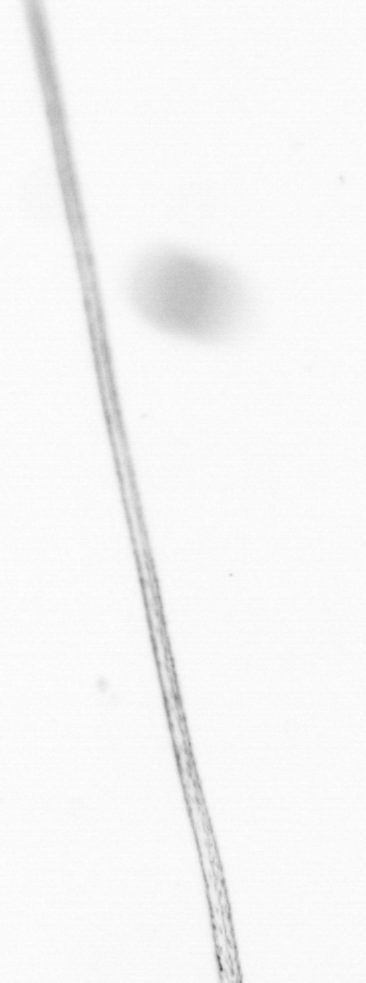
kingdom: Chromista
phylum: Ochrophyta
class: Bacillariophyceae
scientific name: Bacillariophyceae
